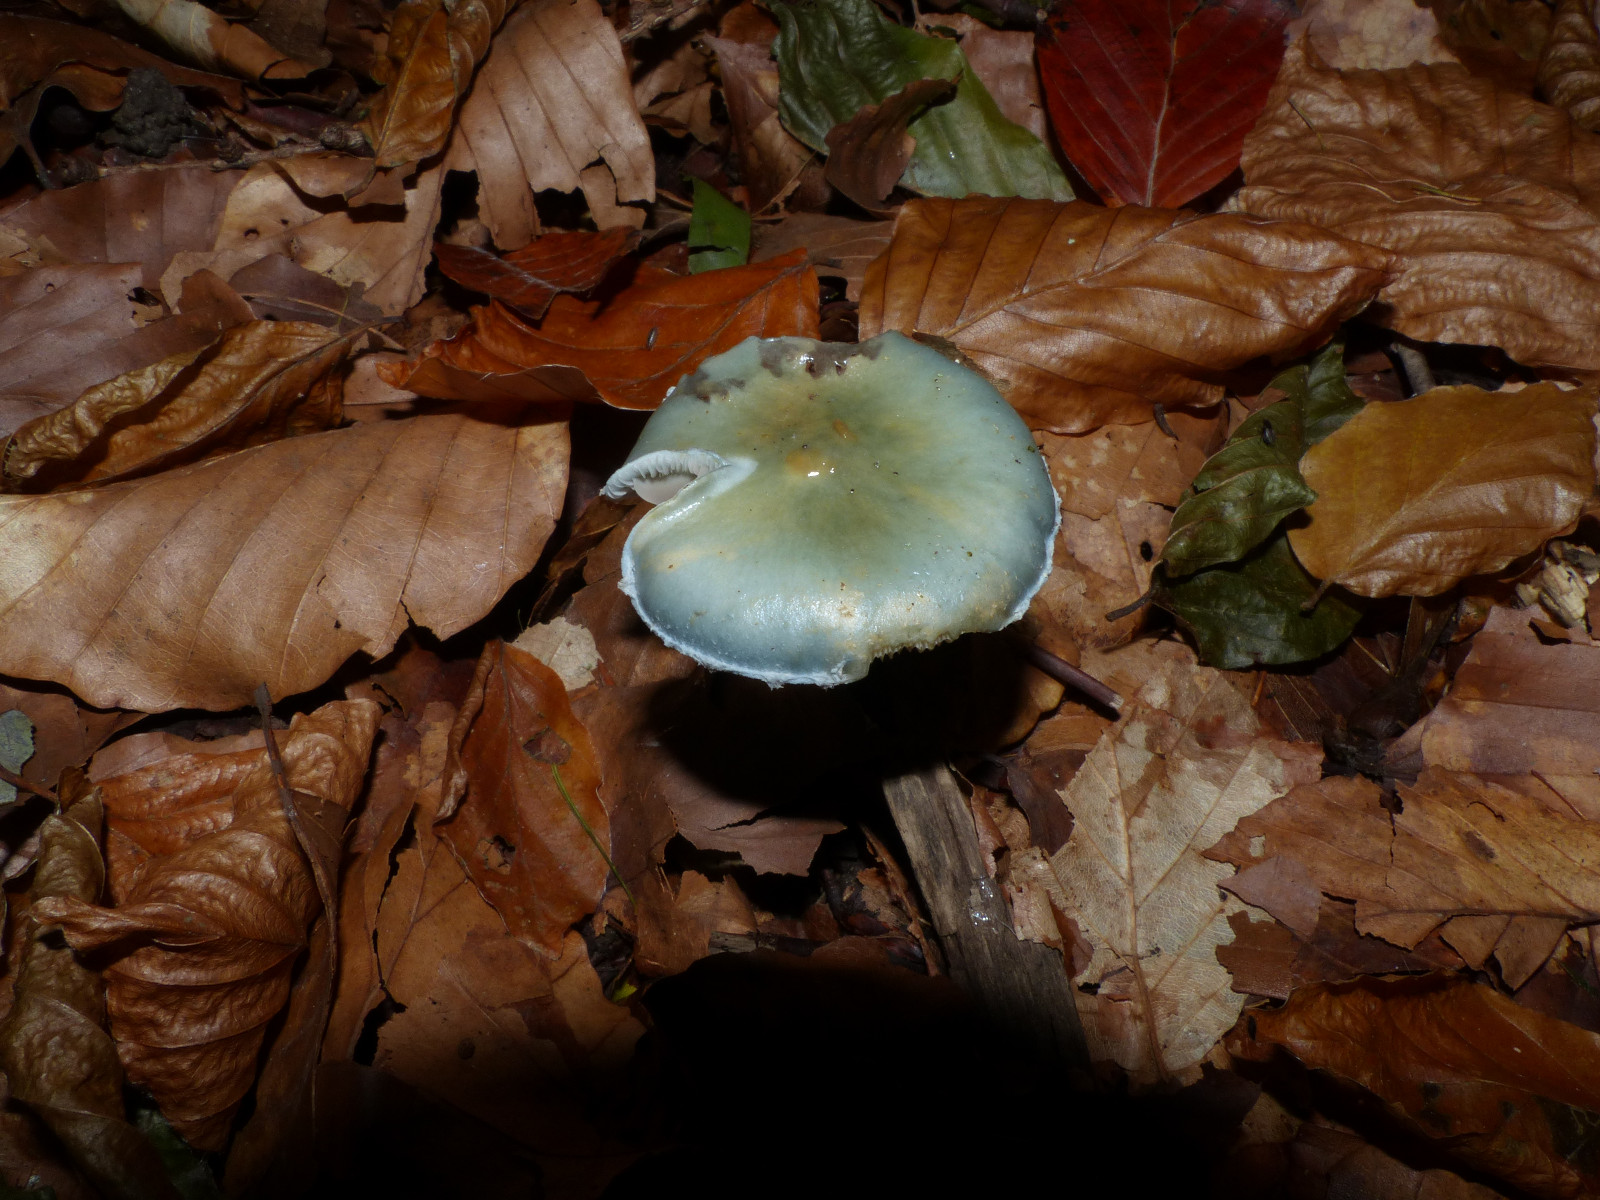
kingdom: Fungi
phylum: Basidiomycota
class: Agaricomycetes
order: Agaricales
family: Strophariaceae
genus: Stropharia
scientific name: Stropharia cyanea
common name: blågrøn bredblad
